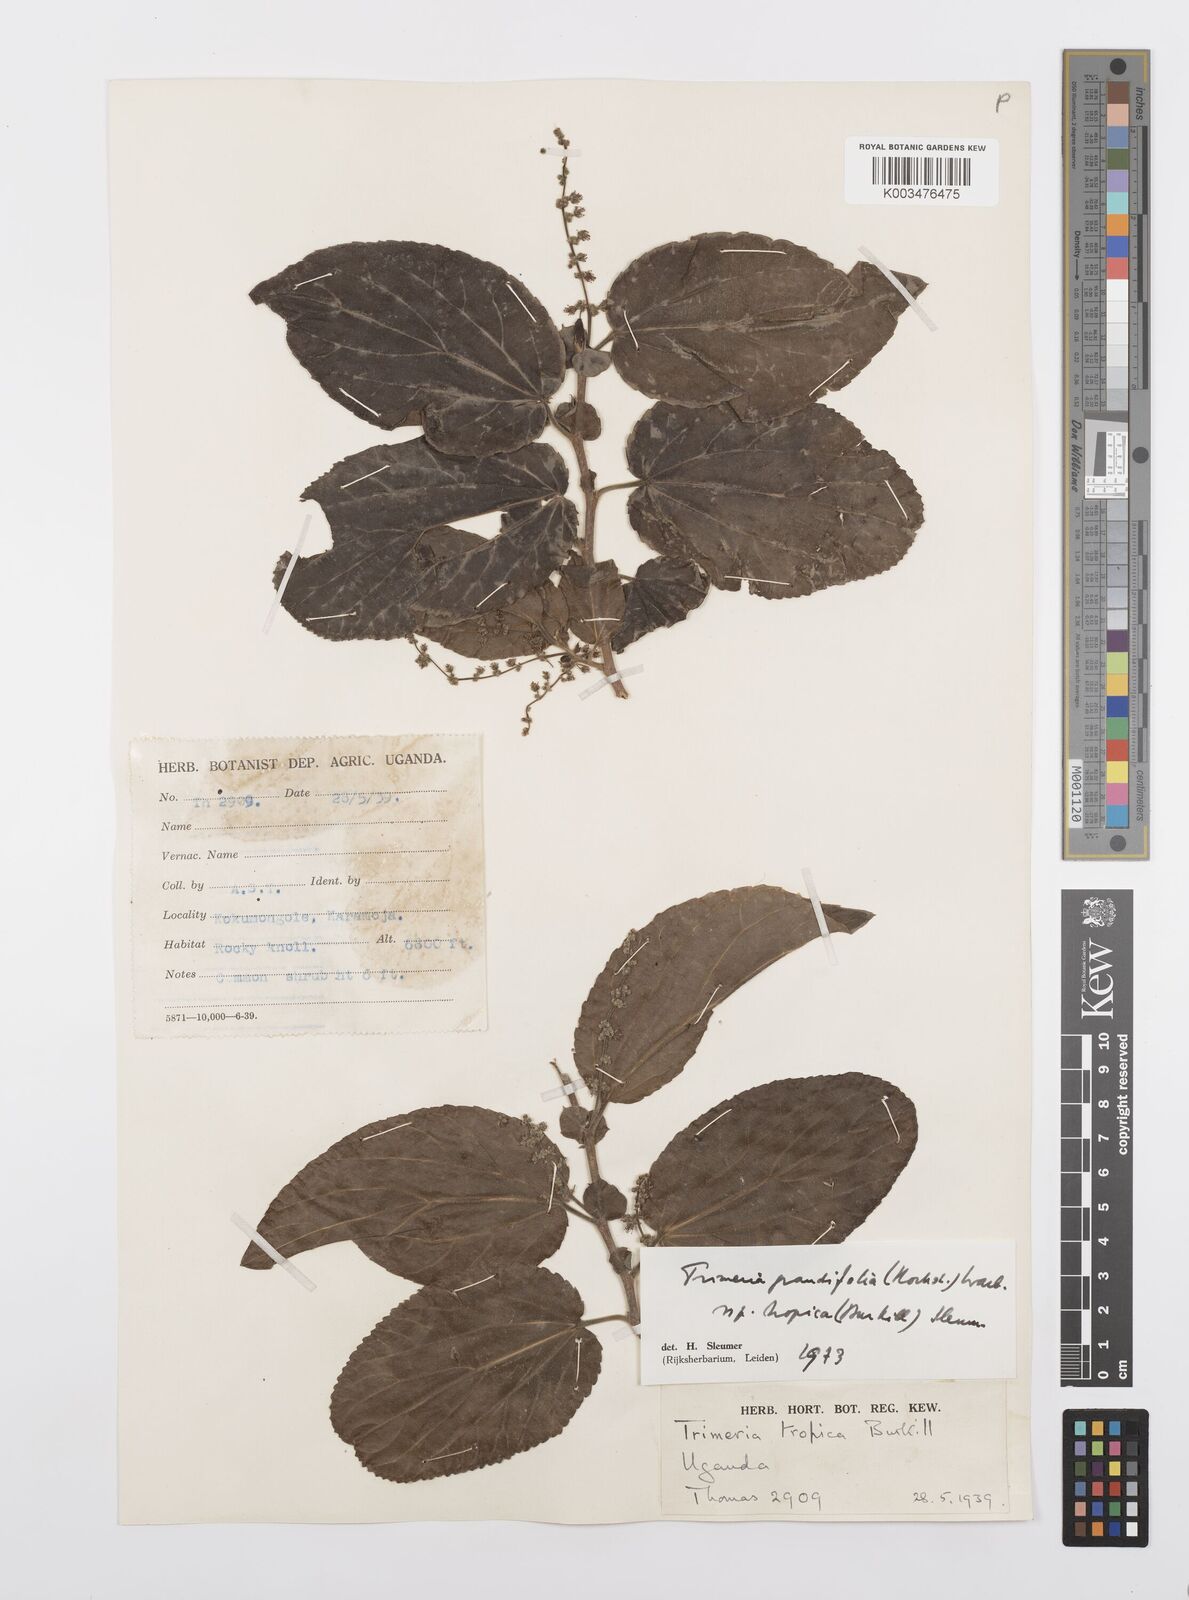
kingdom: Plantae
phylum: Tracheophyta
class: Magnoliopsida
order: Malpighiales
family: Salicaceae
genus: Trimeria
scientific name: Trimeria grandifolia
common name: Wild mulberry
